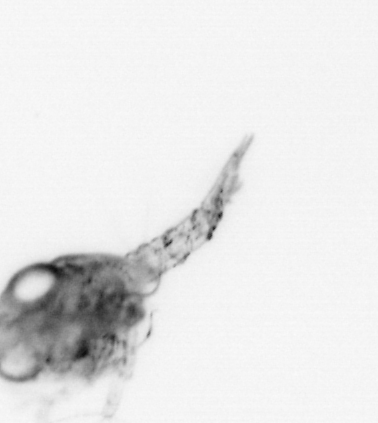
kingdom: Animalia
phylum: Arthropoda
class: Malacostraca
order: Decapoda
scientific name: Decapoda
